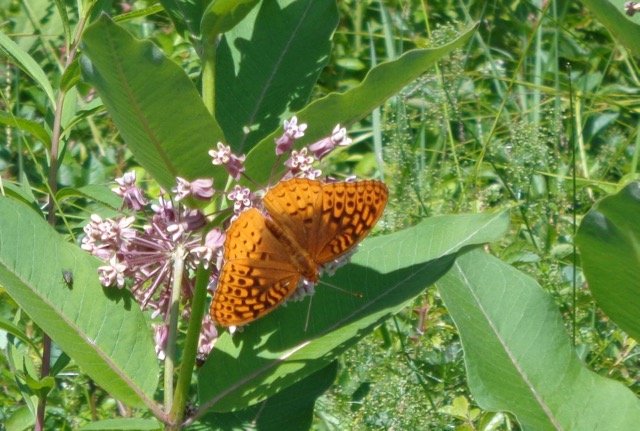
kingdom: Animalia
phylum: Arthropoda
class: Insecta
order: Lepidoptera
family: Nymphalidae
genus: Speyeria
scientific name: Speyeria cybele
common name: Great Spangled Fritillary
